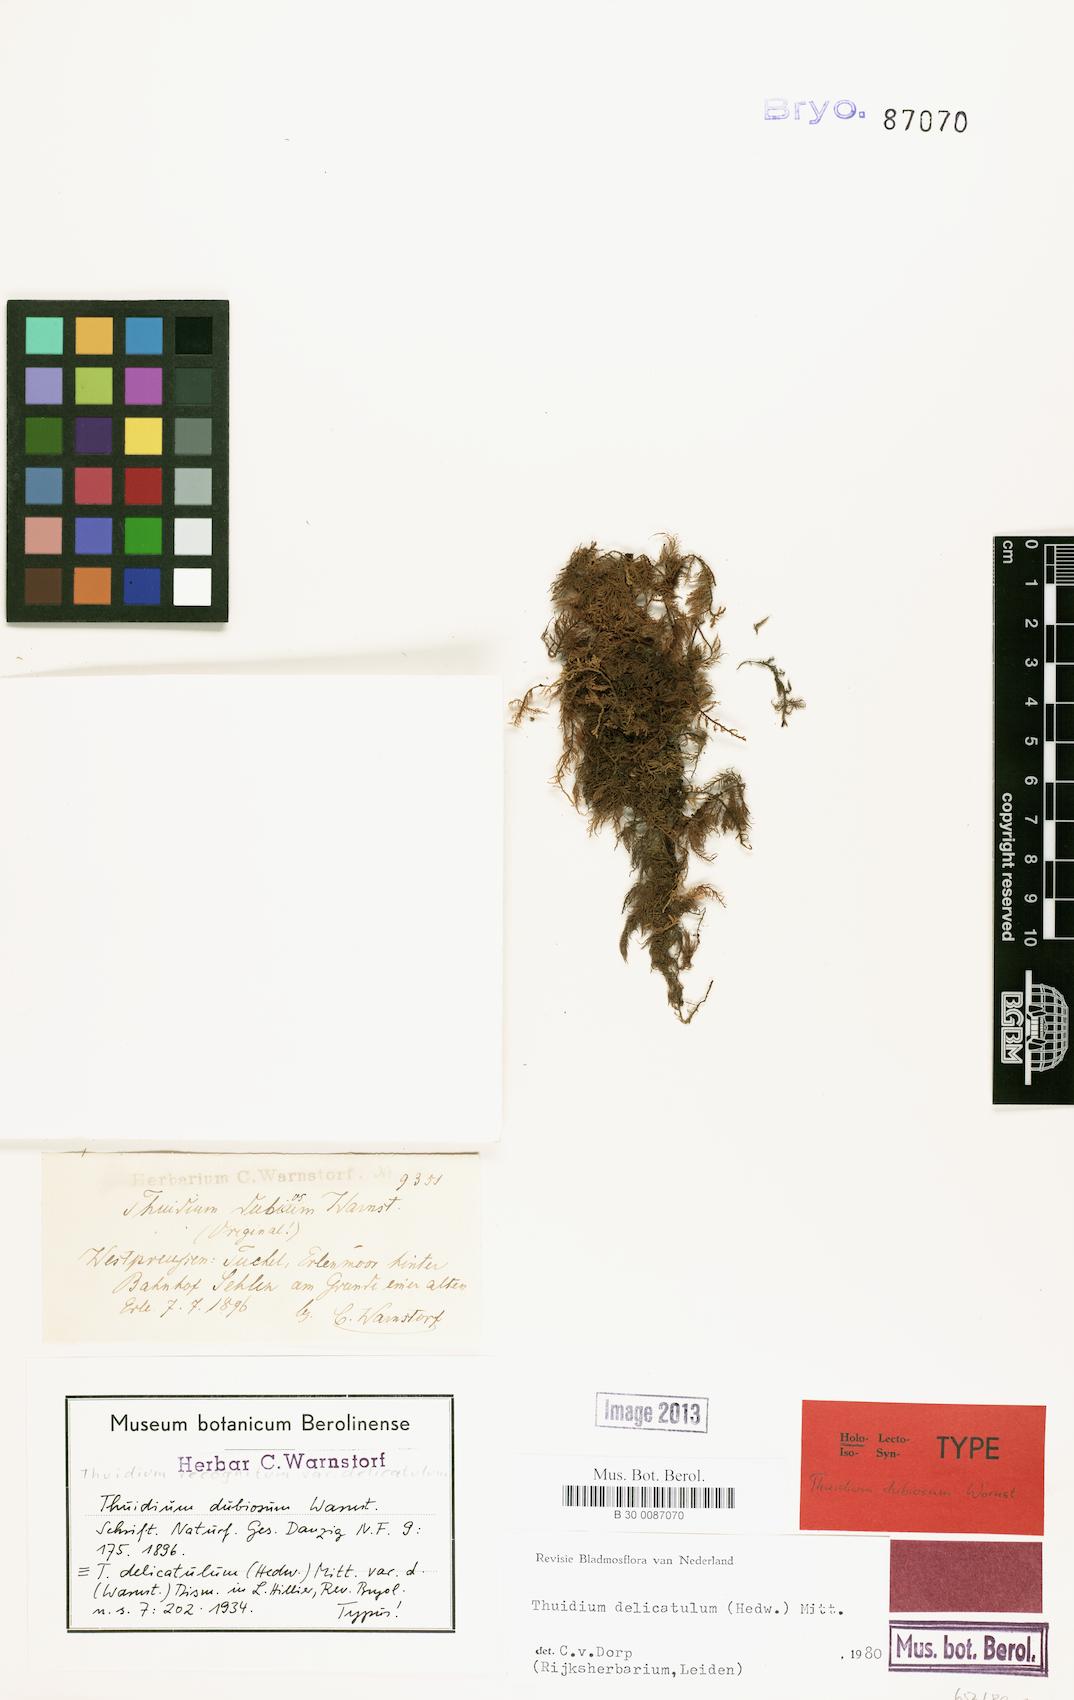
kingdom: Plantae
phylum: Bryophyta
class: Bryopsida
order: Hypnales
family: Thuidiaceae
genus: Thuidium
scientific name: Thuidium delicatulum
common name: Delicate fern moss
